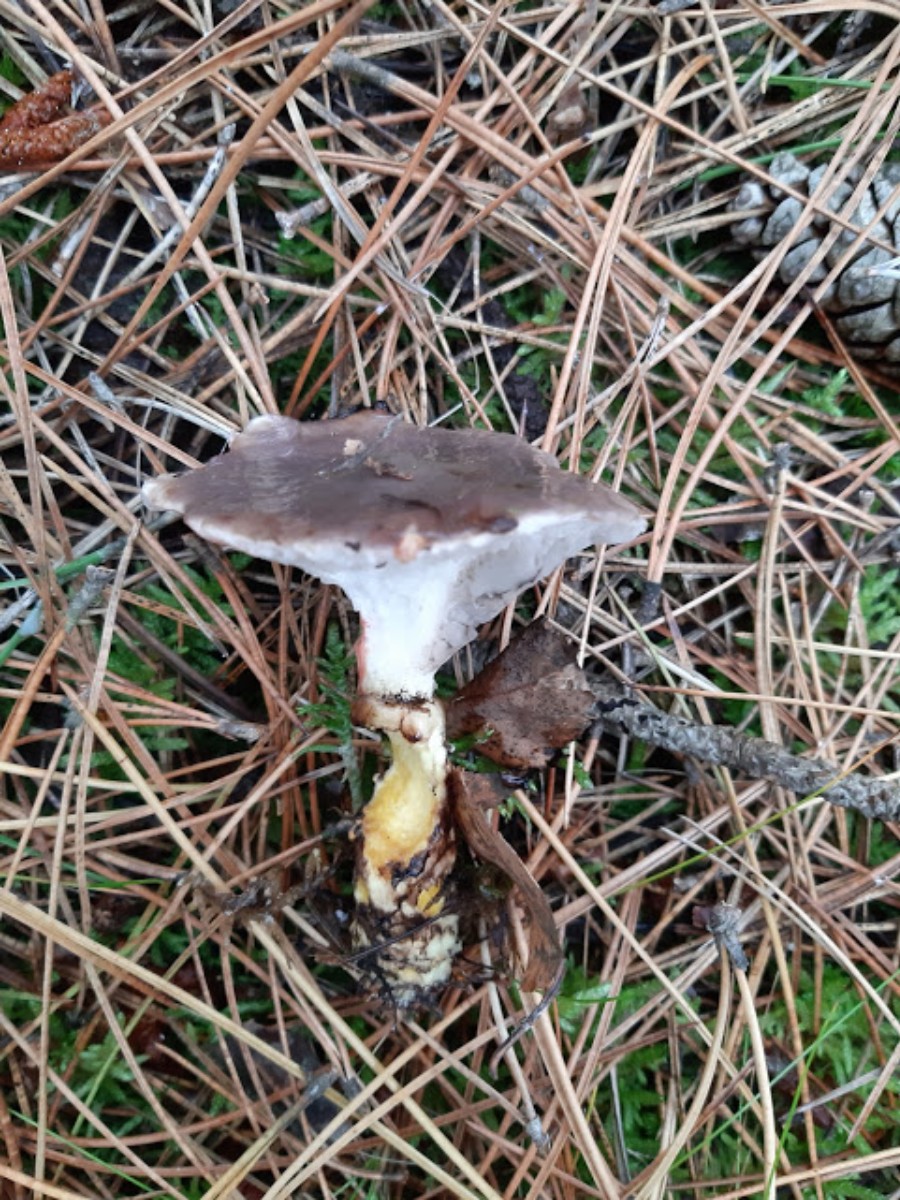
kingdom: Fungi
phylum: Basidiomycota
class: Agaricomycetes
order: Boletales
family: Gomphidiaceae
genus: Gomphidius
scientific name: Gomphidius glutinosus
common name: grå slimslør
